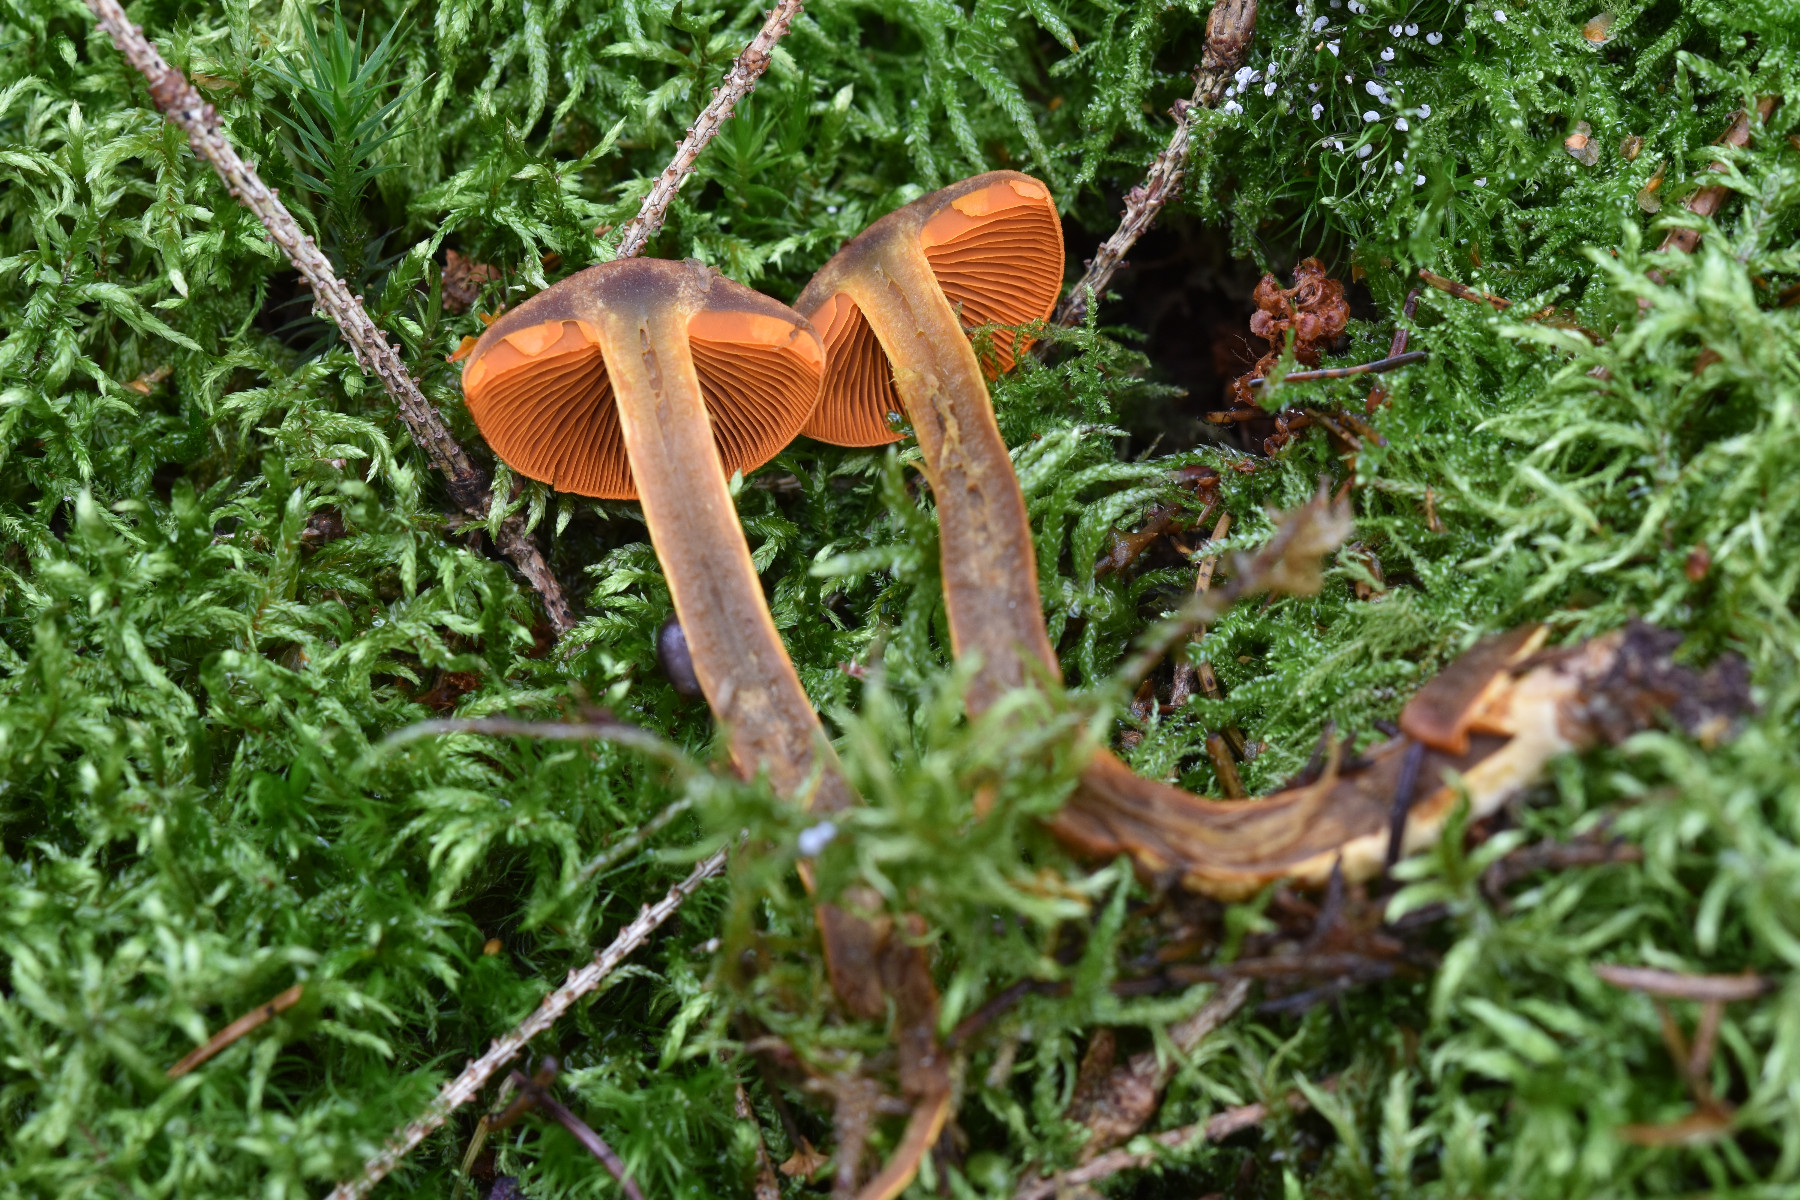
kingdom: Fungi
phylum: Basidiomycota
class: Agaricomycetes
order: Agaricales
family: Cortinariaceae
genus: Cortinarius
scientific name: Cortinarius malicorius
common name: grønkødet slørhat
